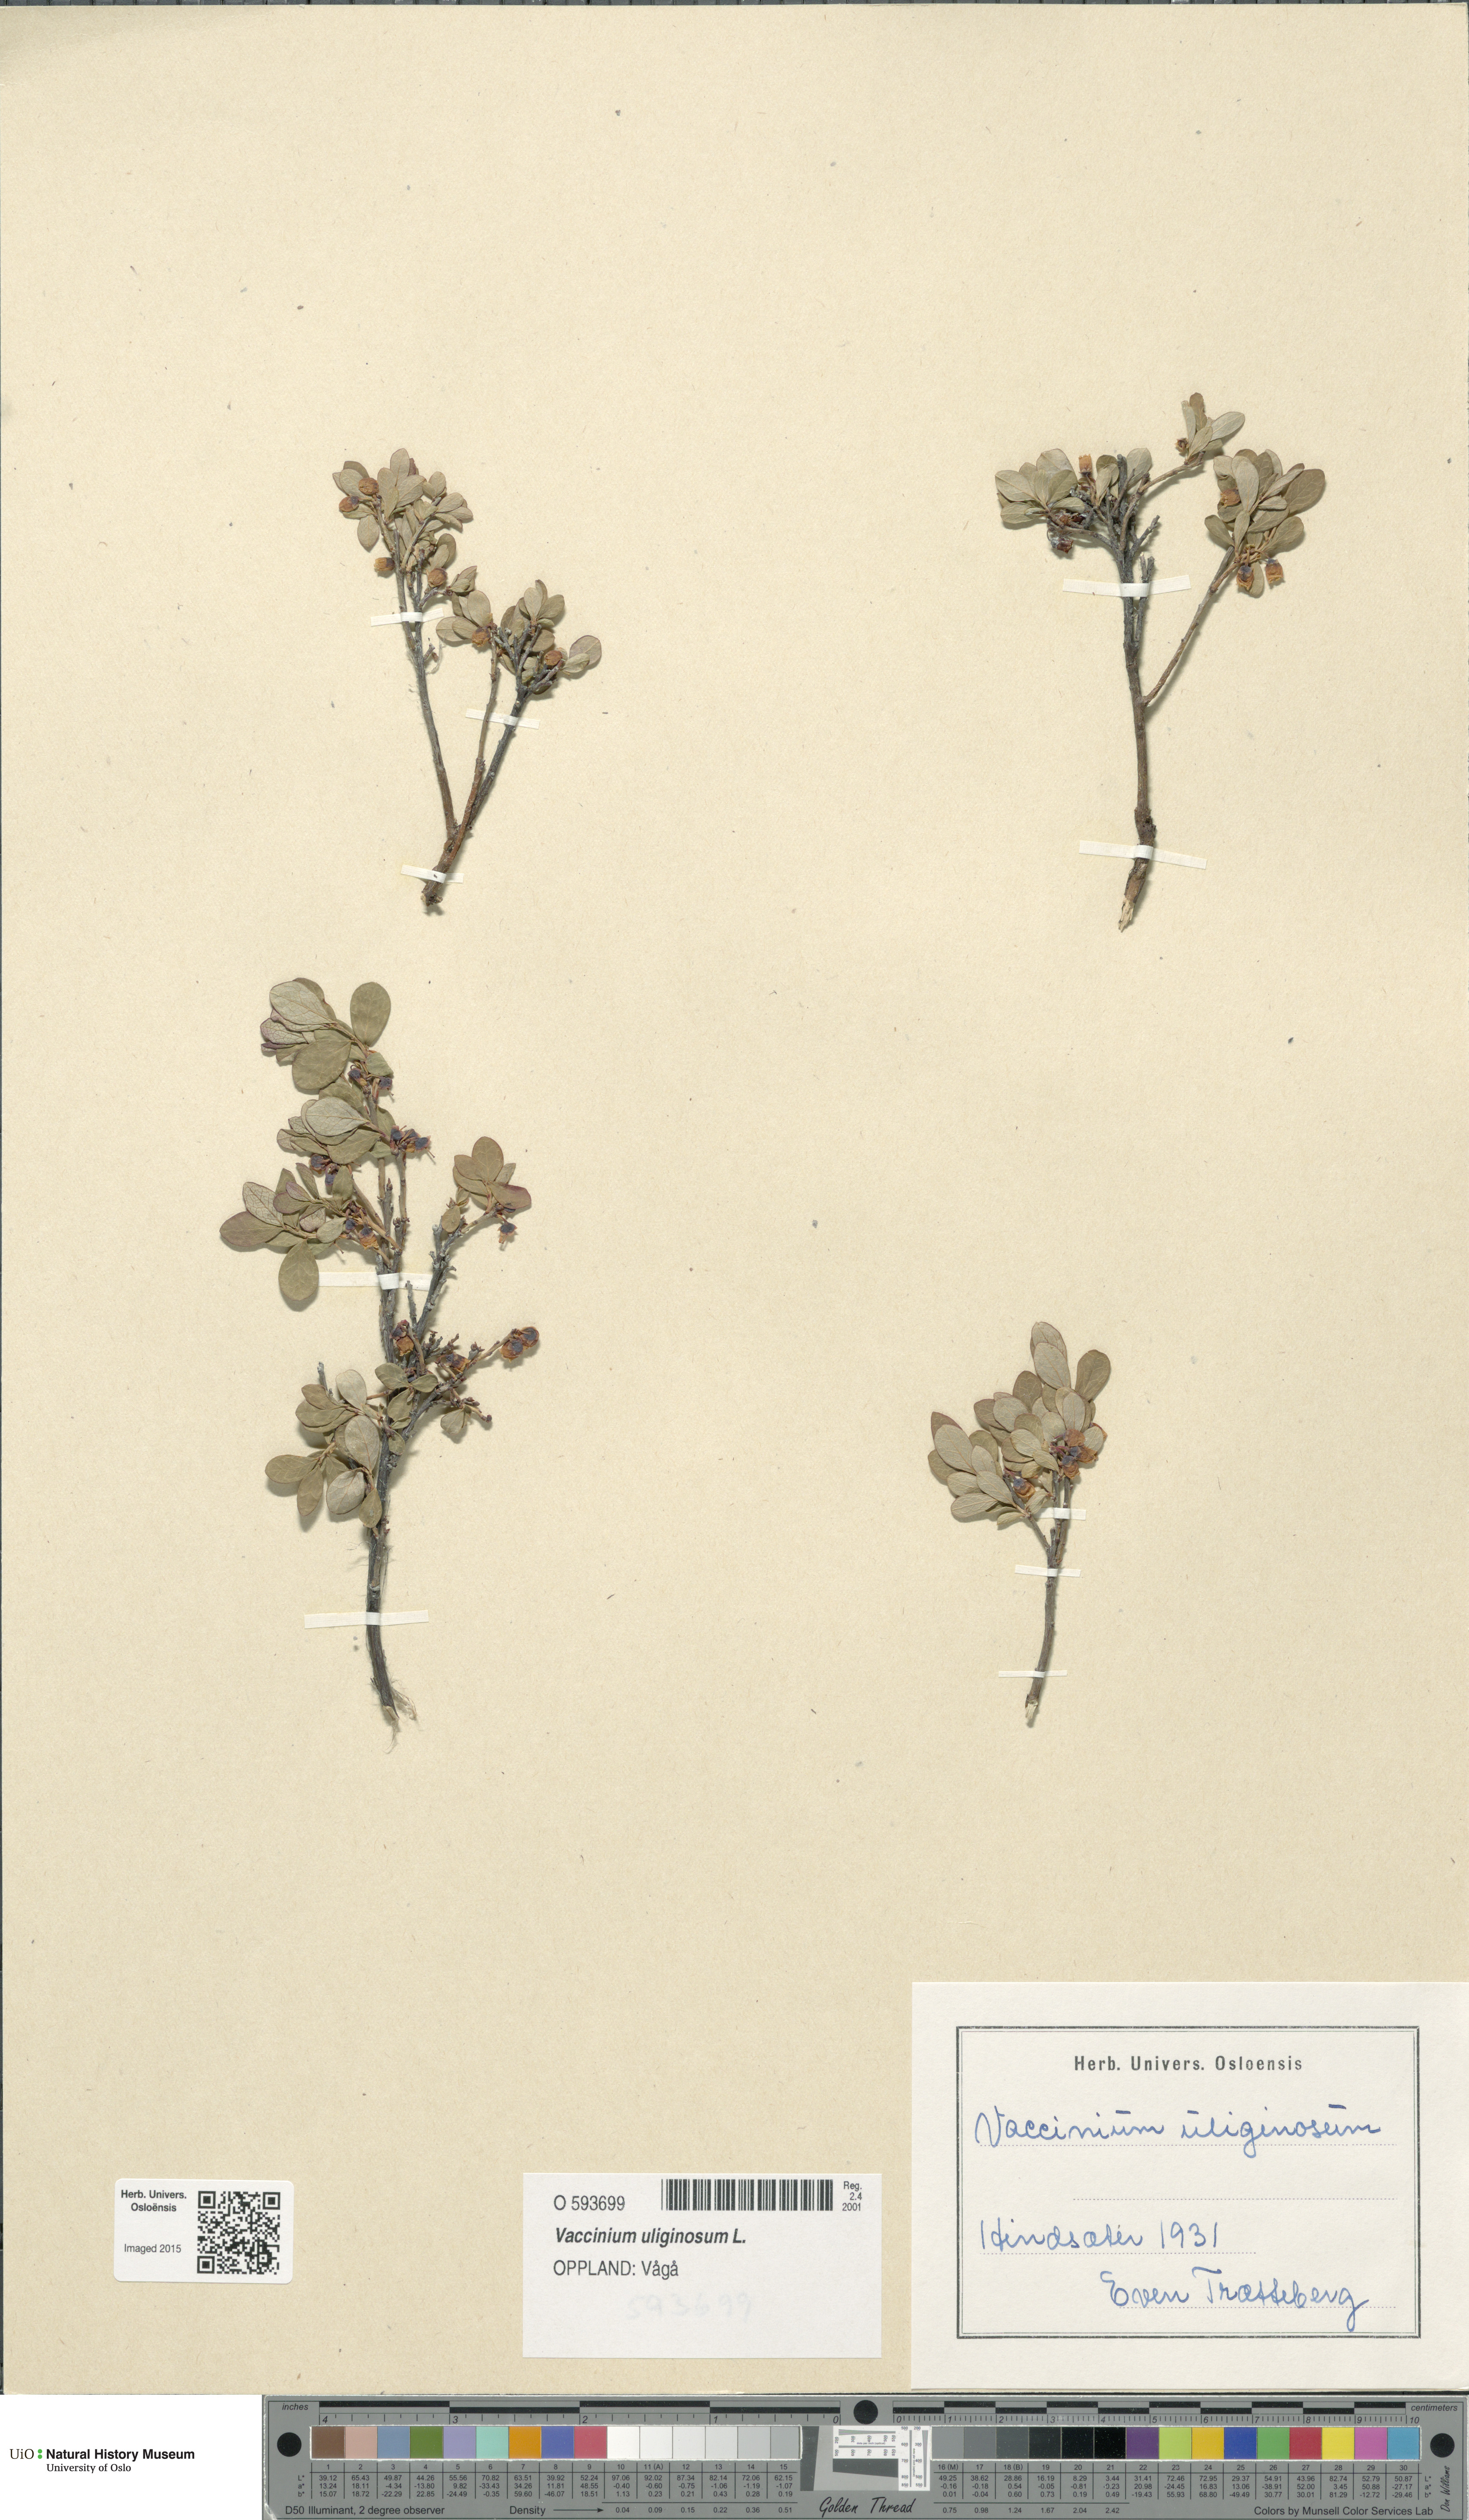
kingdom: Plantae
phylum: Tracheophyta
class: Magnoliopsida
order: Ericales
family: Ericaceae
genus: Vaccinium
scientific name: Vaccinium uliginosum
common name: Bog bilberry
